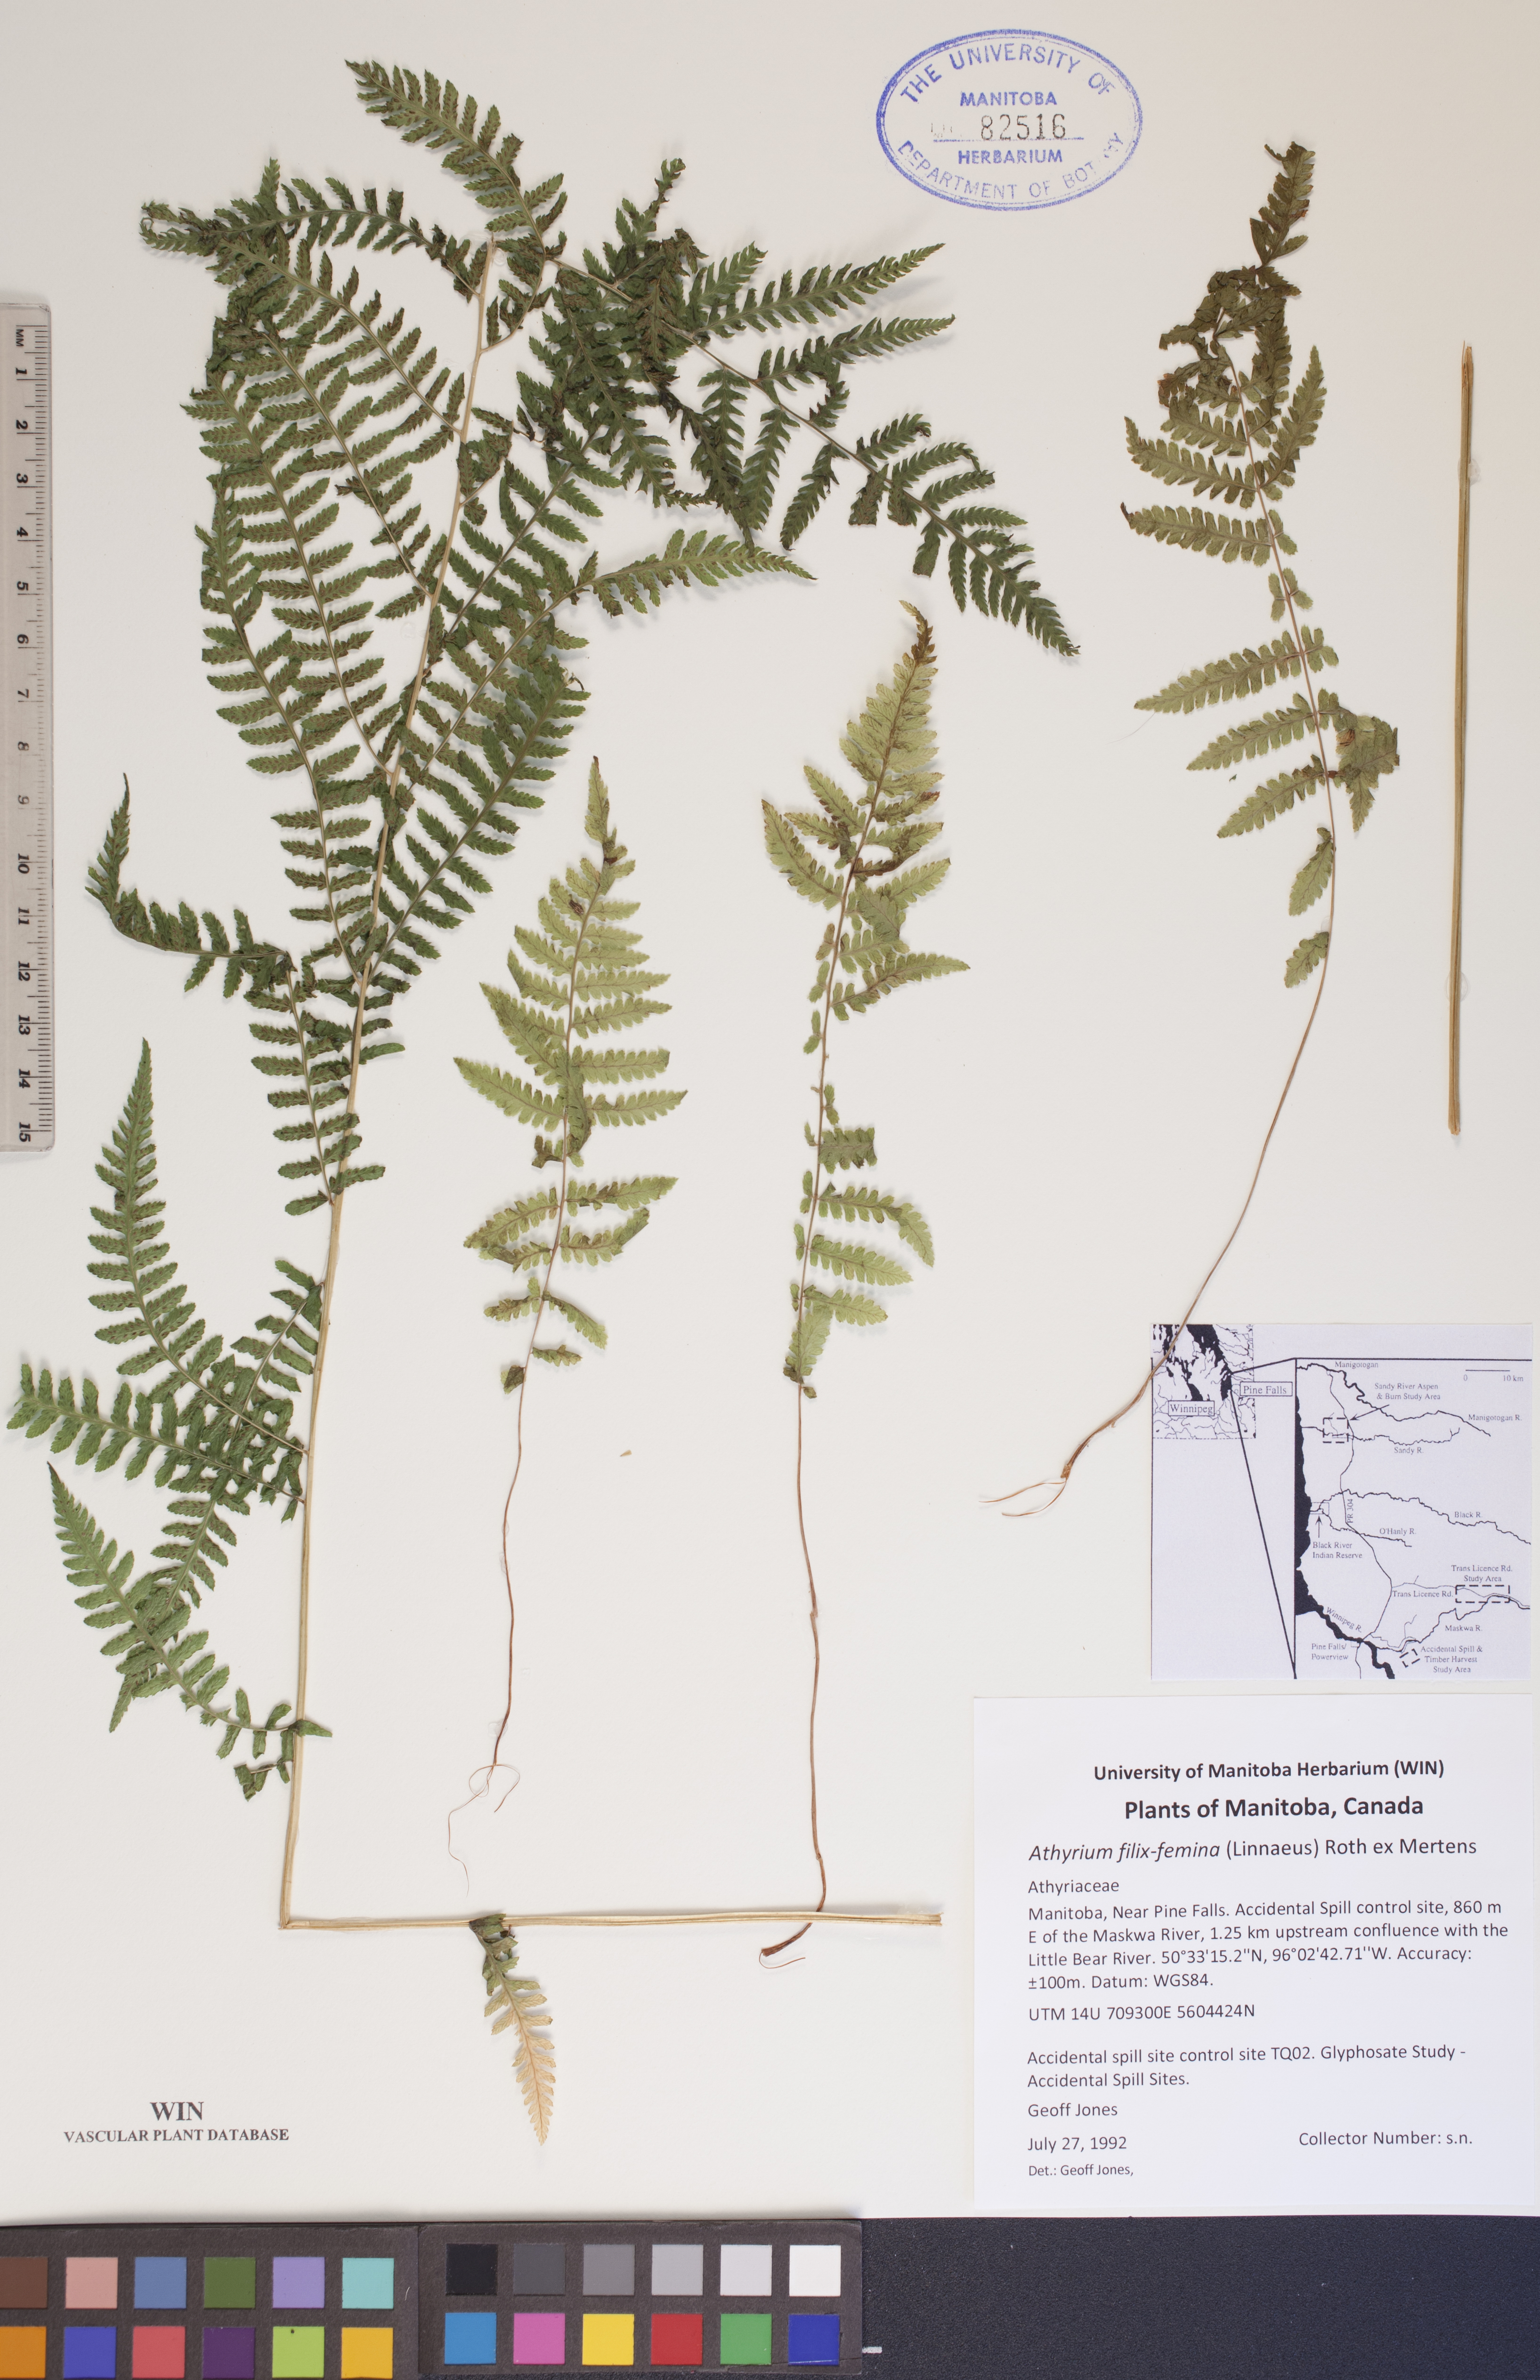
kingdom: Plantae
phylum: Tracheophyta
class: Polypodiopsida
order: Polypodiales
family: Athyriaceae
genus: Athyrium
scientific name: Athyrium filix-femina
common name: Lady fern
